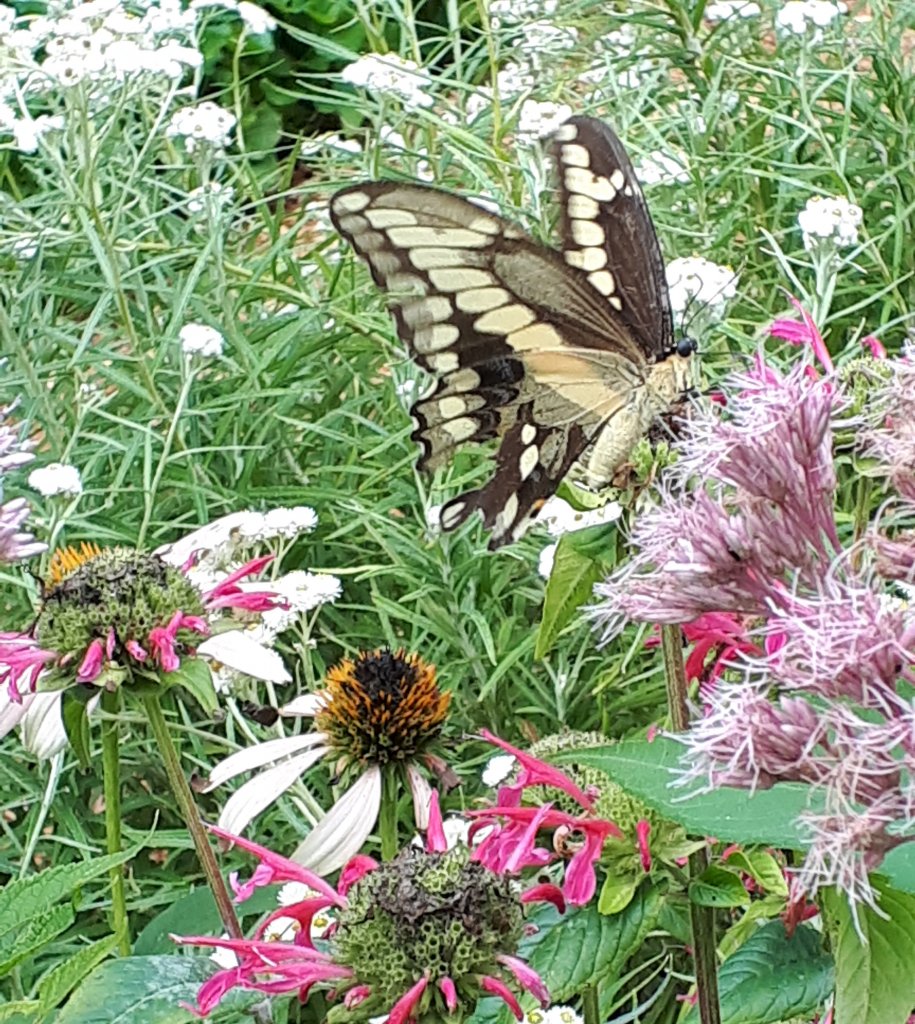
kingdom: Animalia
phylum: Arthropoda
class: Insecta
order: Lepidoptera
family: Papilionidae
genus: Papilio
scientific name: Papilio cresphontes
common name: Eastern Giant Swallowtail
